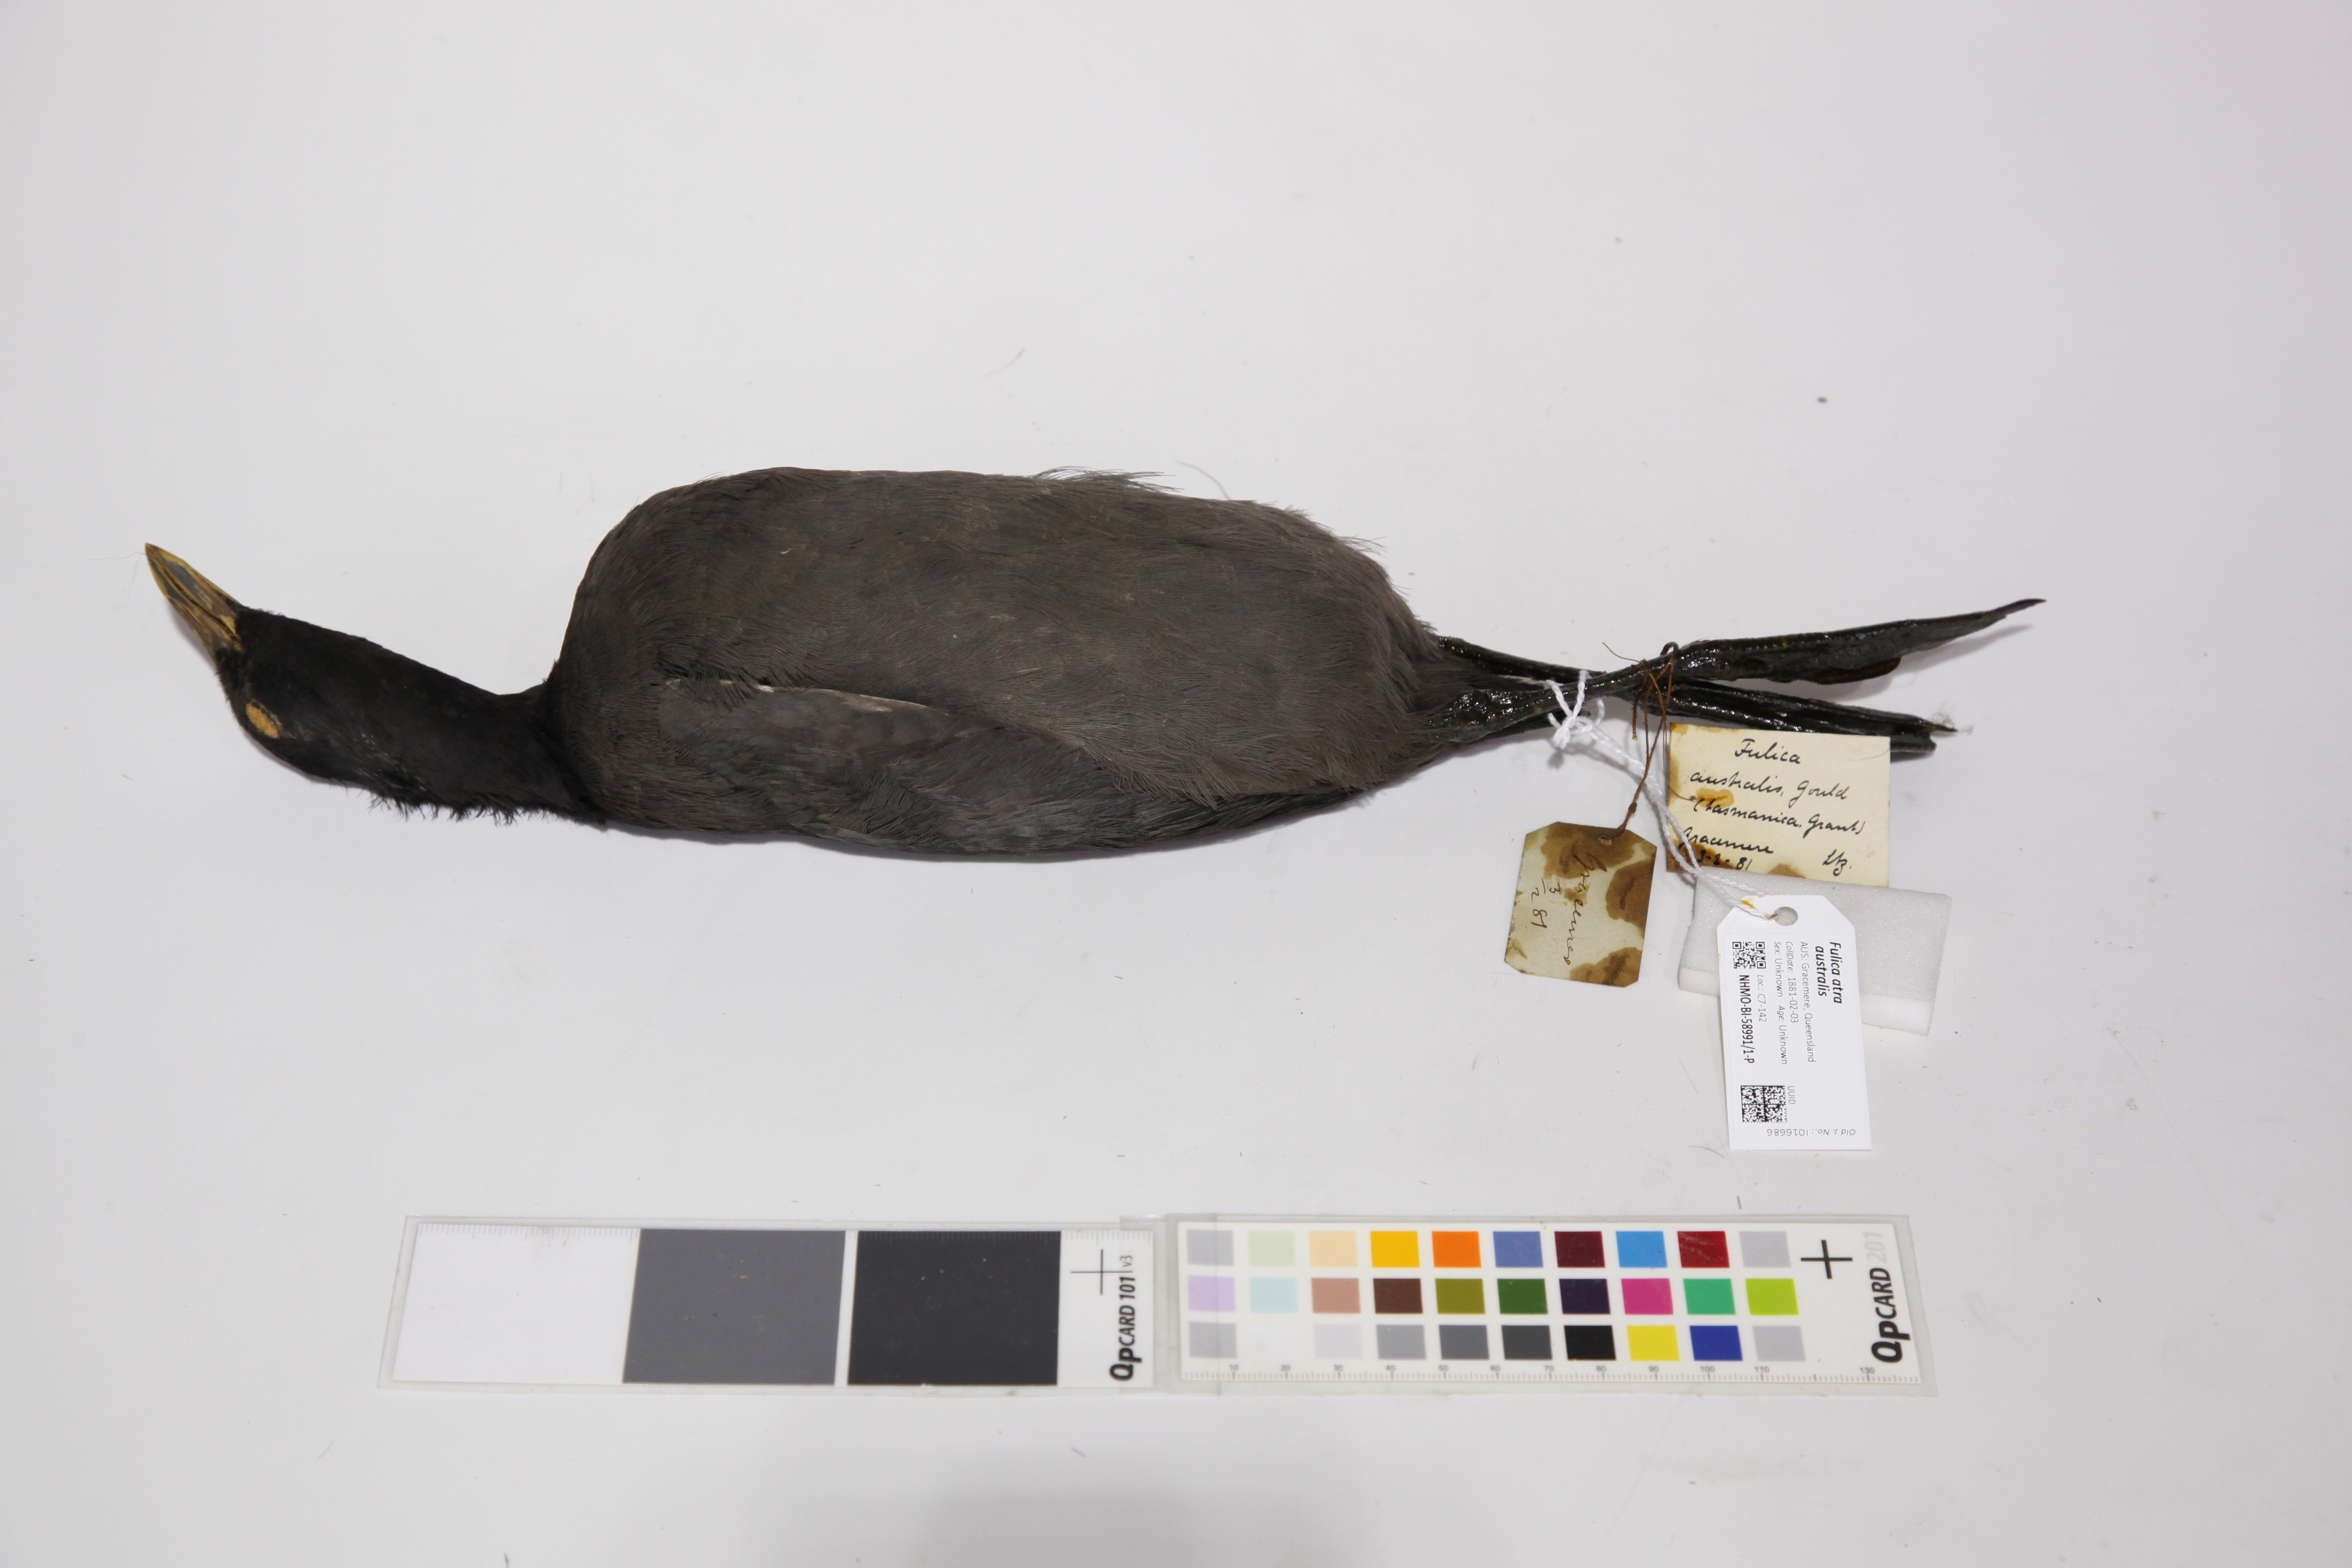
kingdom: Animalia
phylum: Chordata
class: Aves
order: Gruiformes
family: Rallidae
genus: Fulica
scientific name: Fulica atra
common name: Eurasian coot
